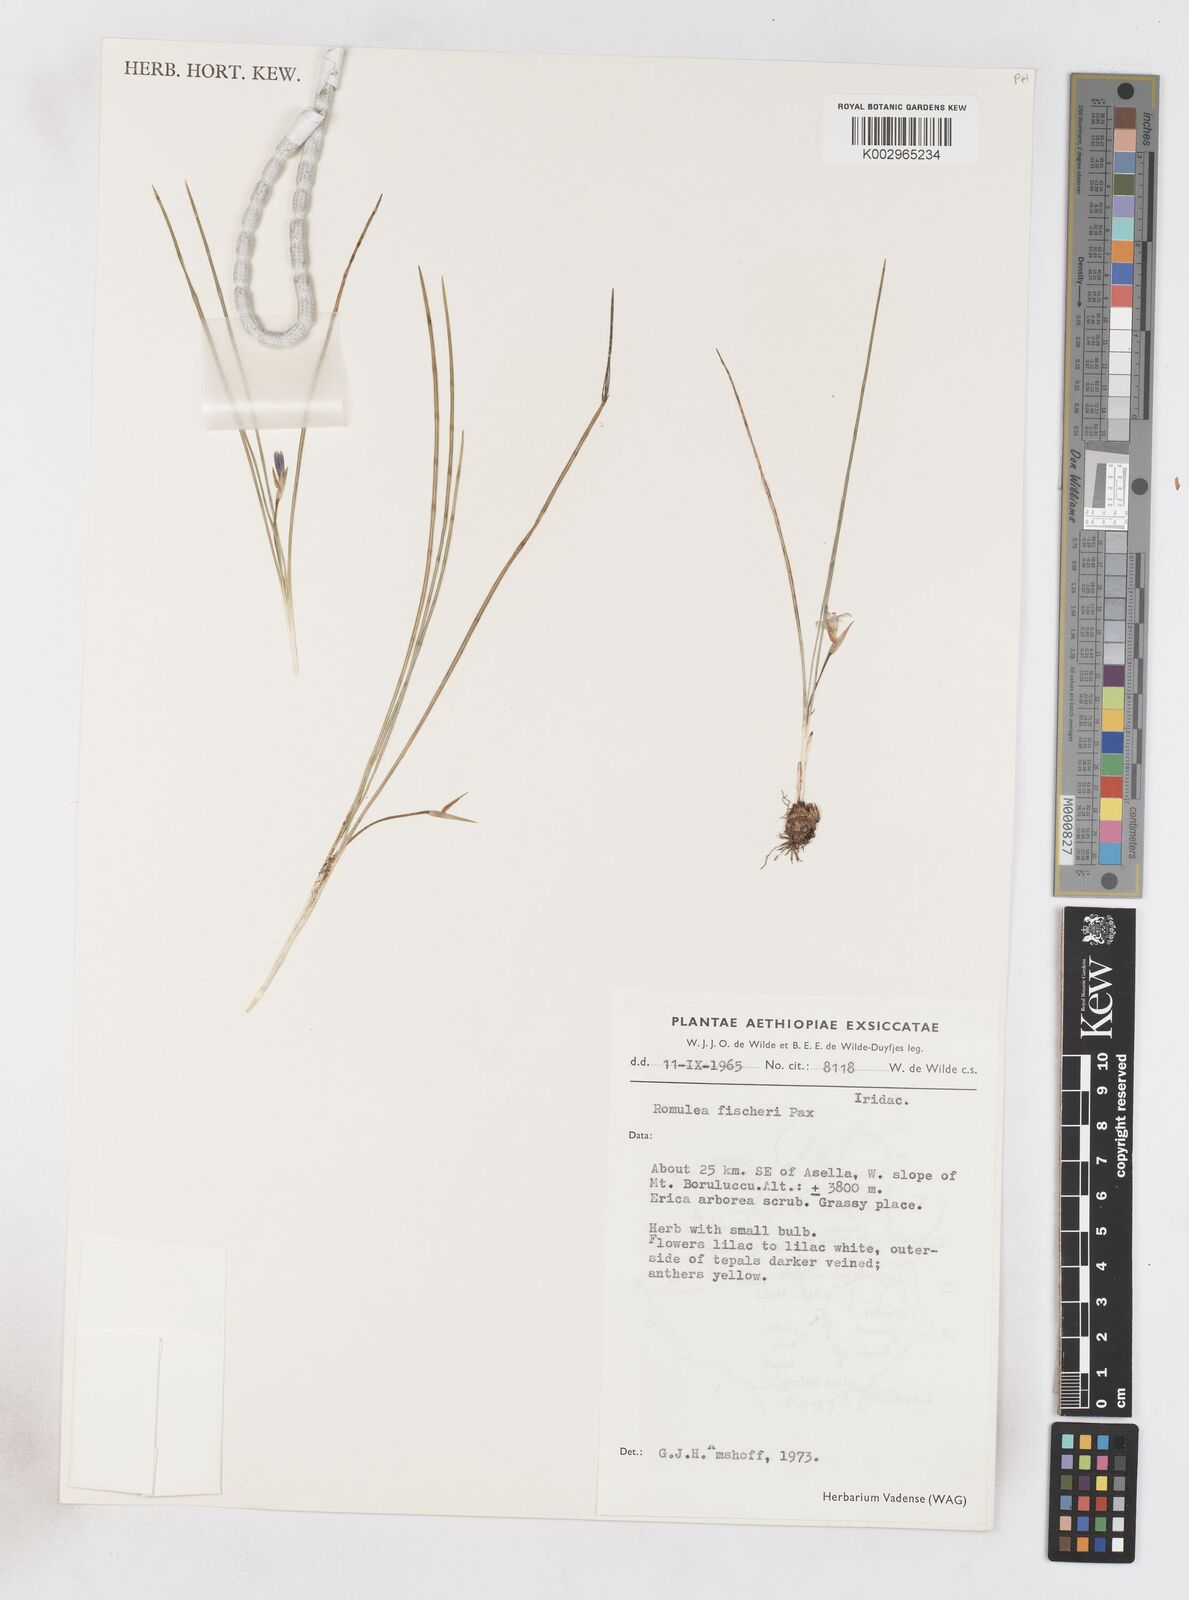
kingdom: Plantae
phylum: Tracheophyta
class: Liliopsida
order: Asparagales
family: Iridaceae
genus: Romulea
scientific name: Romulea fischeri
